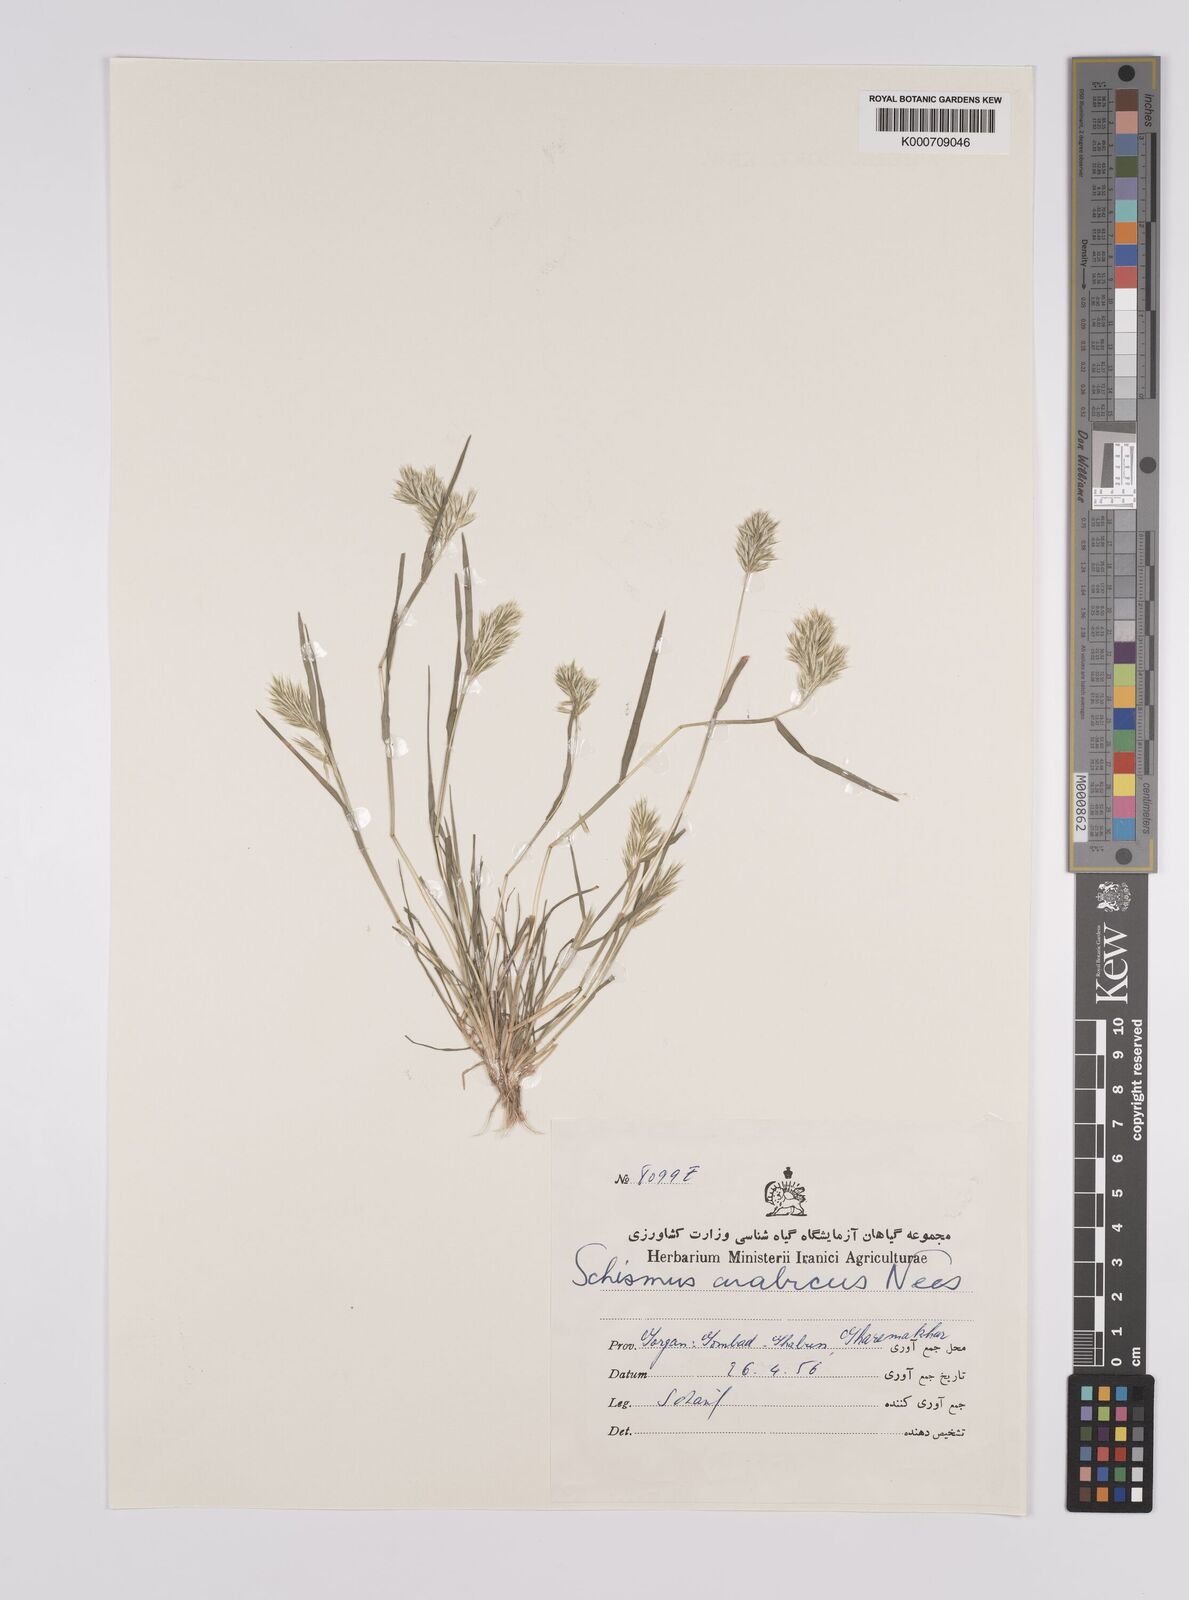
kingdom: Plantae
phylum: Tracheophyta
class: Liliopsida
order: Poales
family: Poaceae
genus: Schismus
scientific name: Schismus arabicus
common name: Arabian schismus
